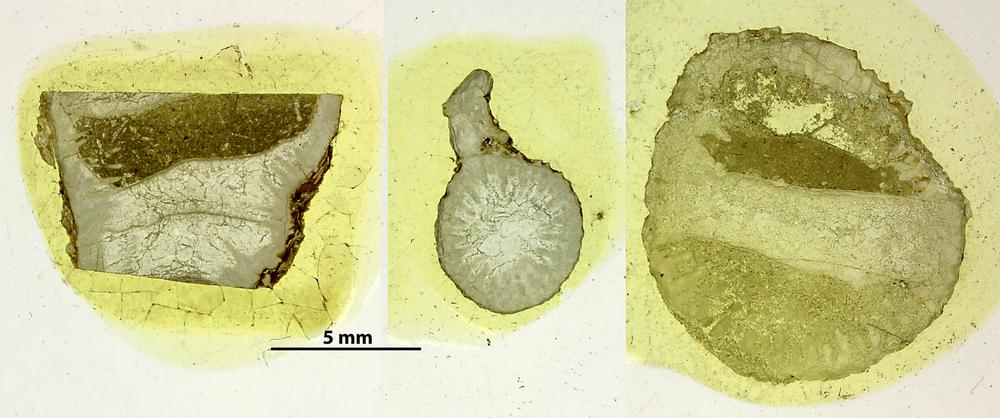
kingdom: Animalia
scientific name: Animalia
